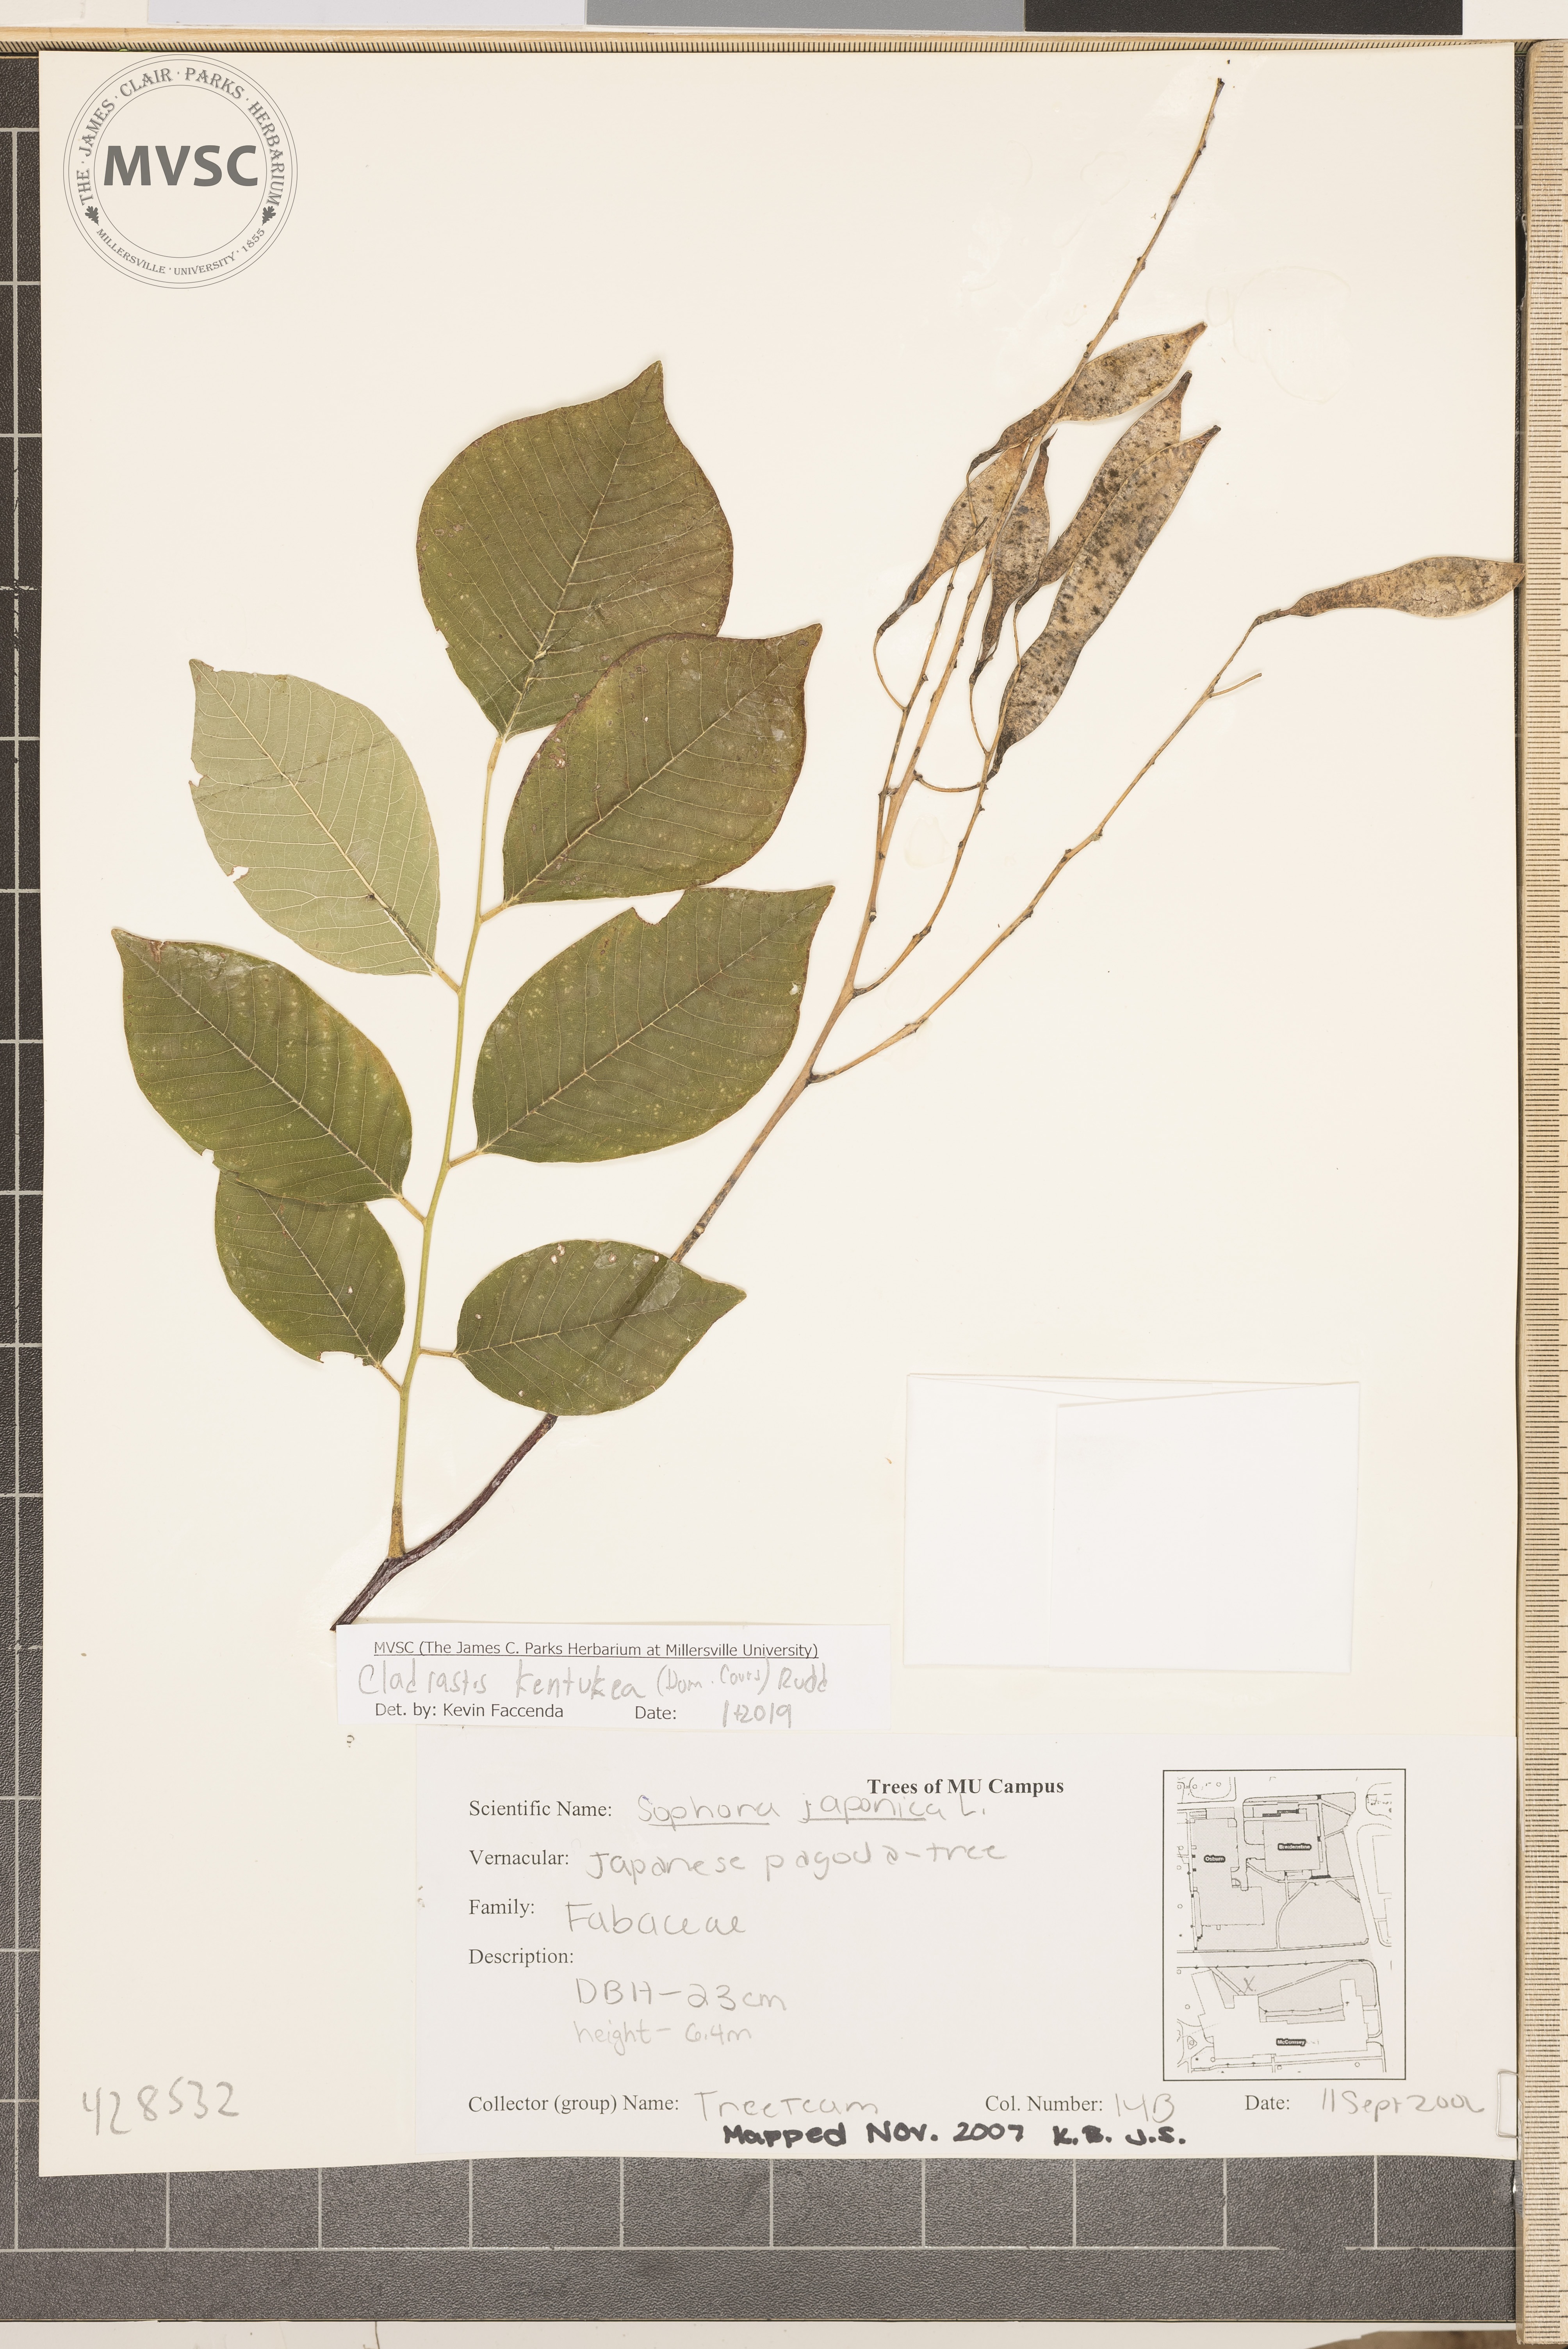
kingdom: Plantae
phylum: Tracheophyta
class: Magnoliopsida
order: Fabales
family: Fabaceae
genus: Cladrastis
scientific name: Cladrastis kentukea
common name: Kentucky yellow-wood
